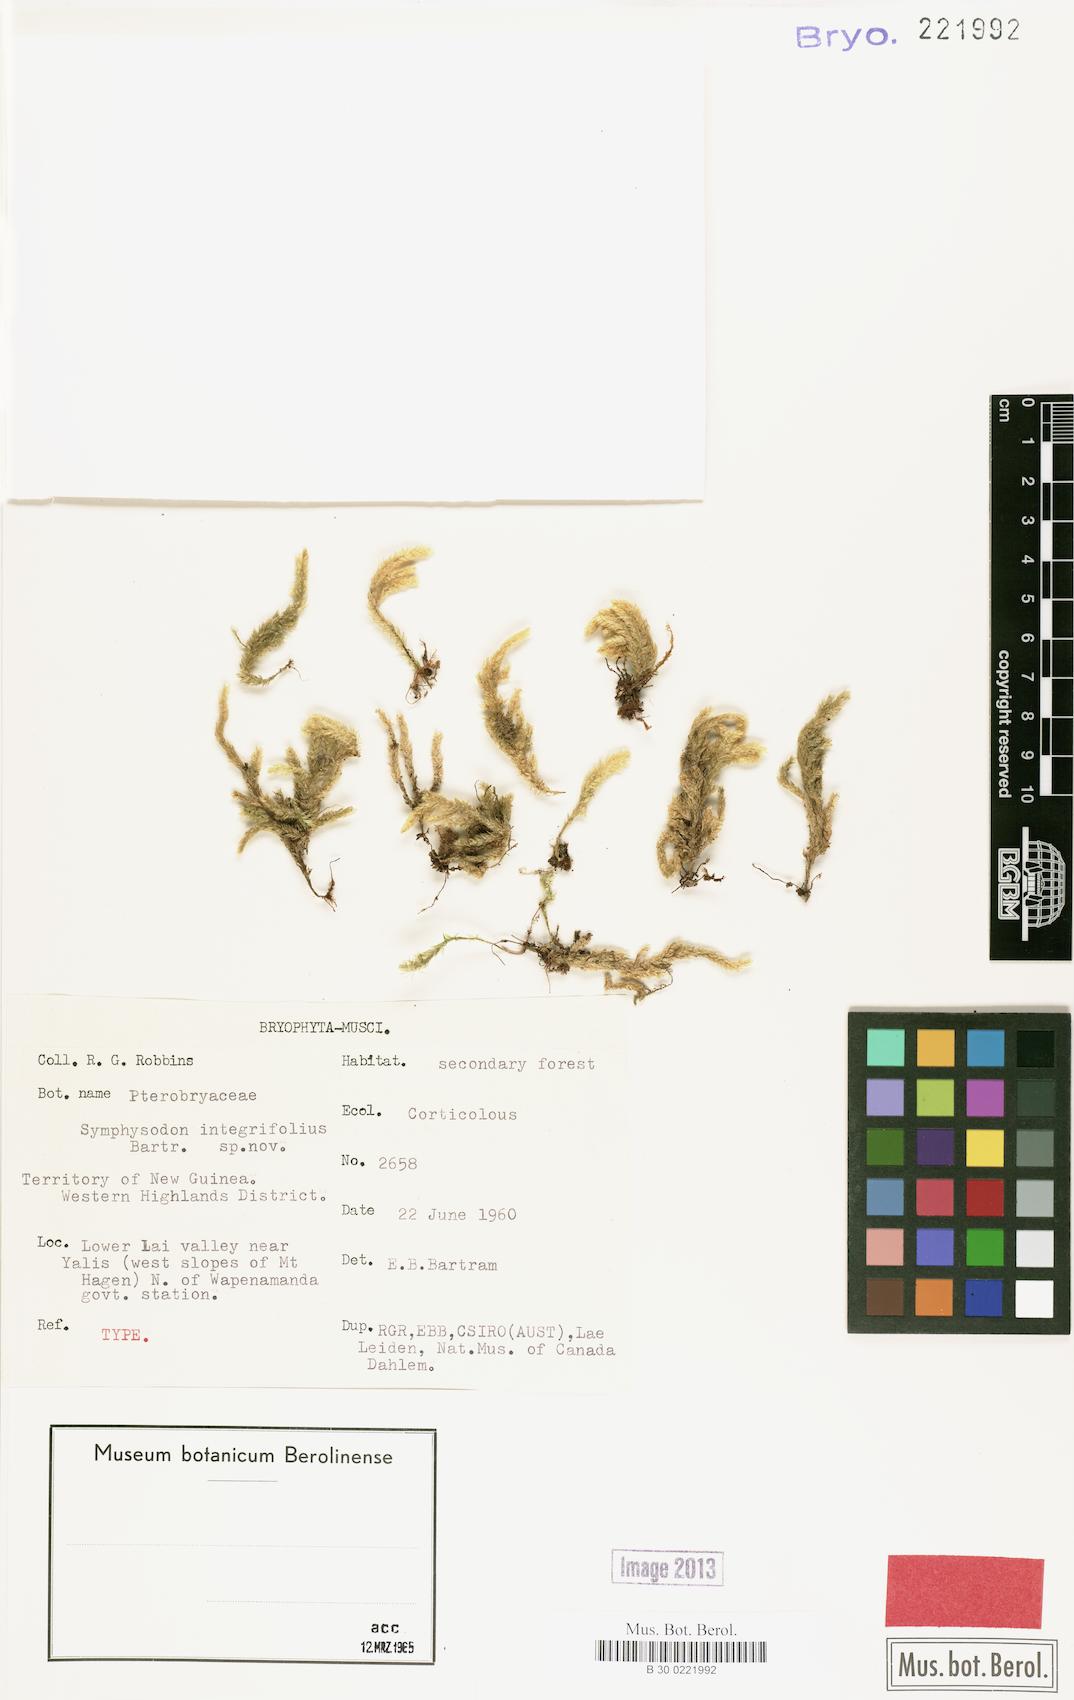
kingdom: Plantae
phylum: Bryophyta
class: Bryopsida
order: Hypnales
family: Pterobryaceae
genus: Calyptothecium
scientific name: Calyptothecium integrifolium
